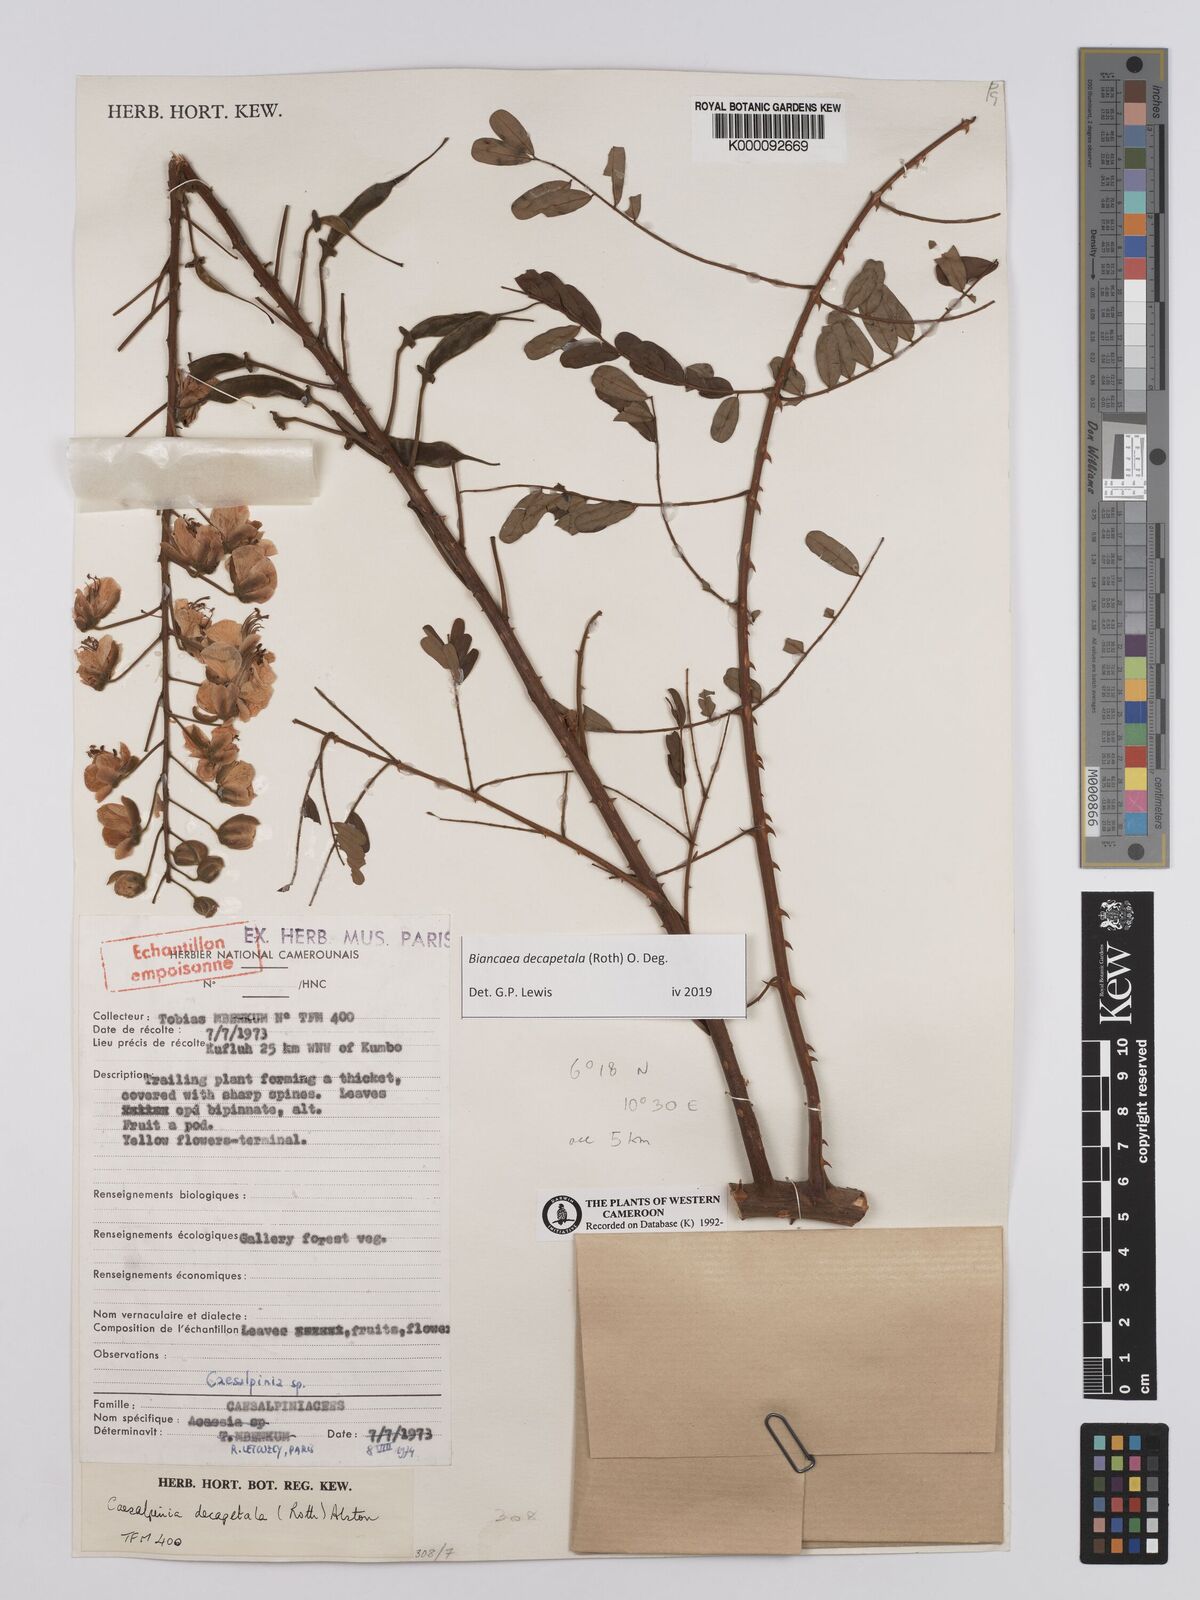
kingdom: Plantae
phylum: Tracheophyta
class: Magnoliopsida
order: Fabales
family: Fabaceae
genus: Biancaea
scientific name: Biancaea decapetala
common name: Cat's claw
